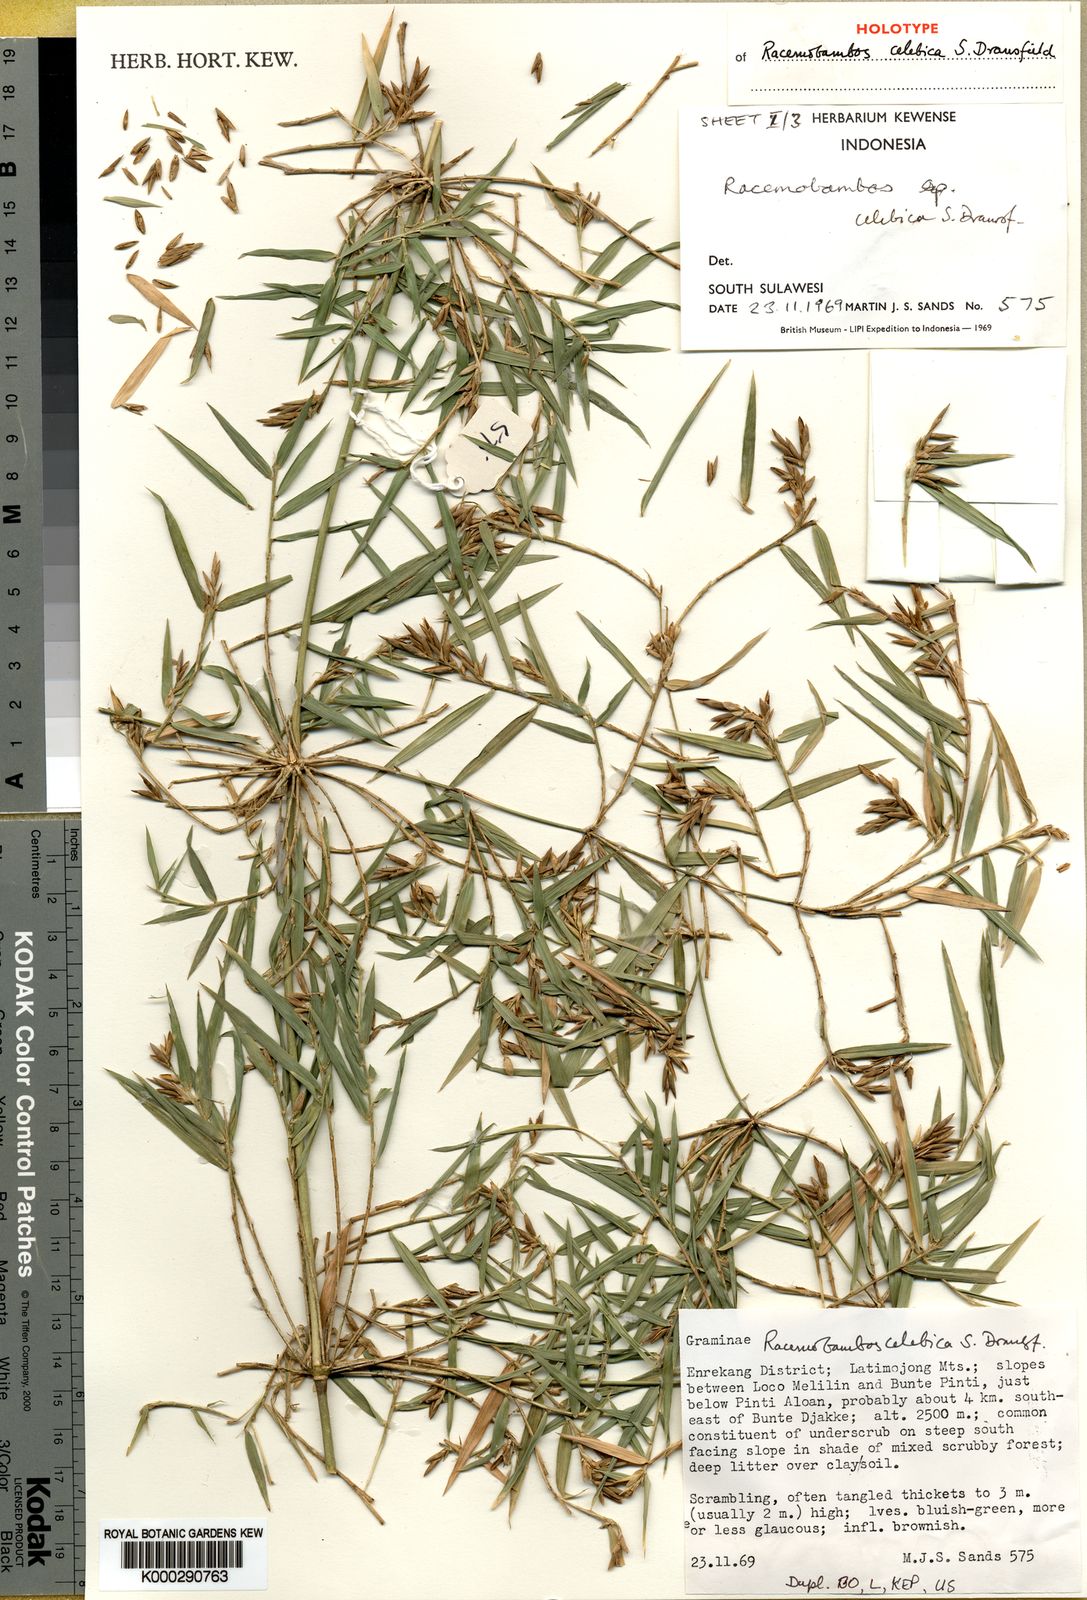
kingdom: Plantae
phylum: Tracheophyta
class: Liliopsida
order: Poales
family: Poaceae
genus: Racemobambos
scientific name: Racemobambos celebica
